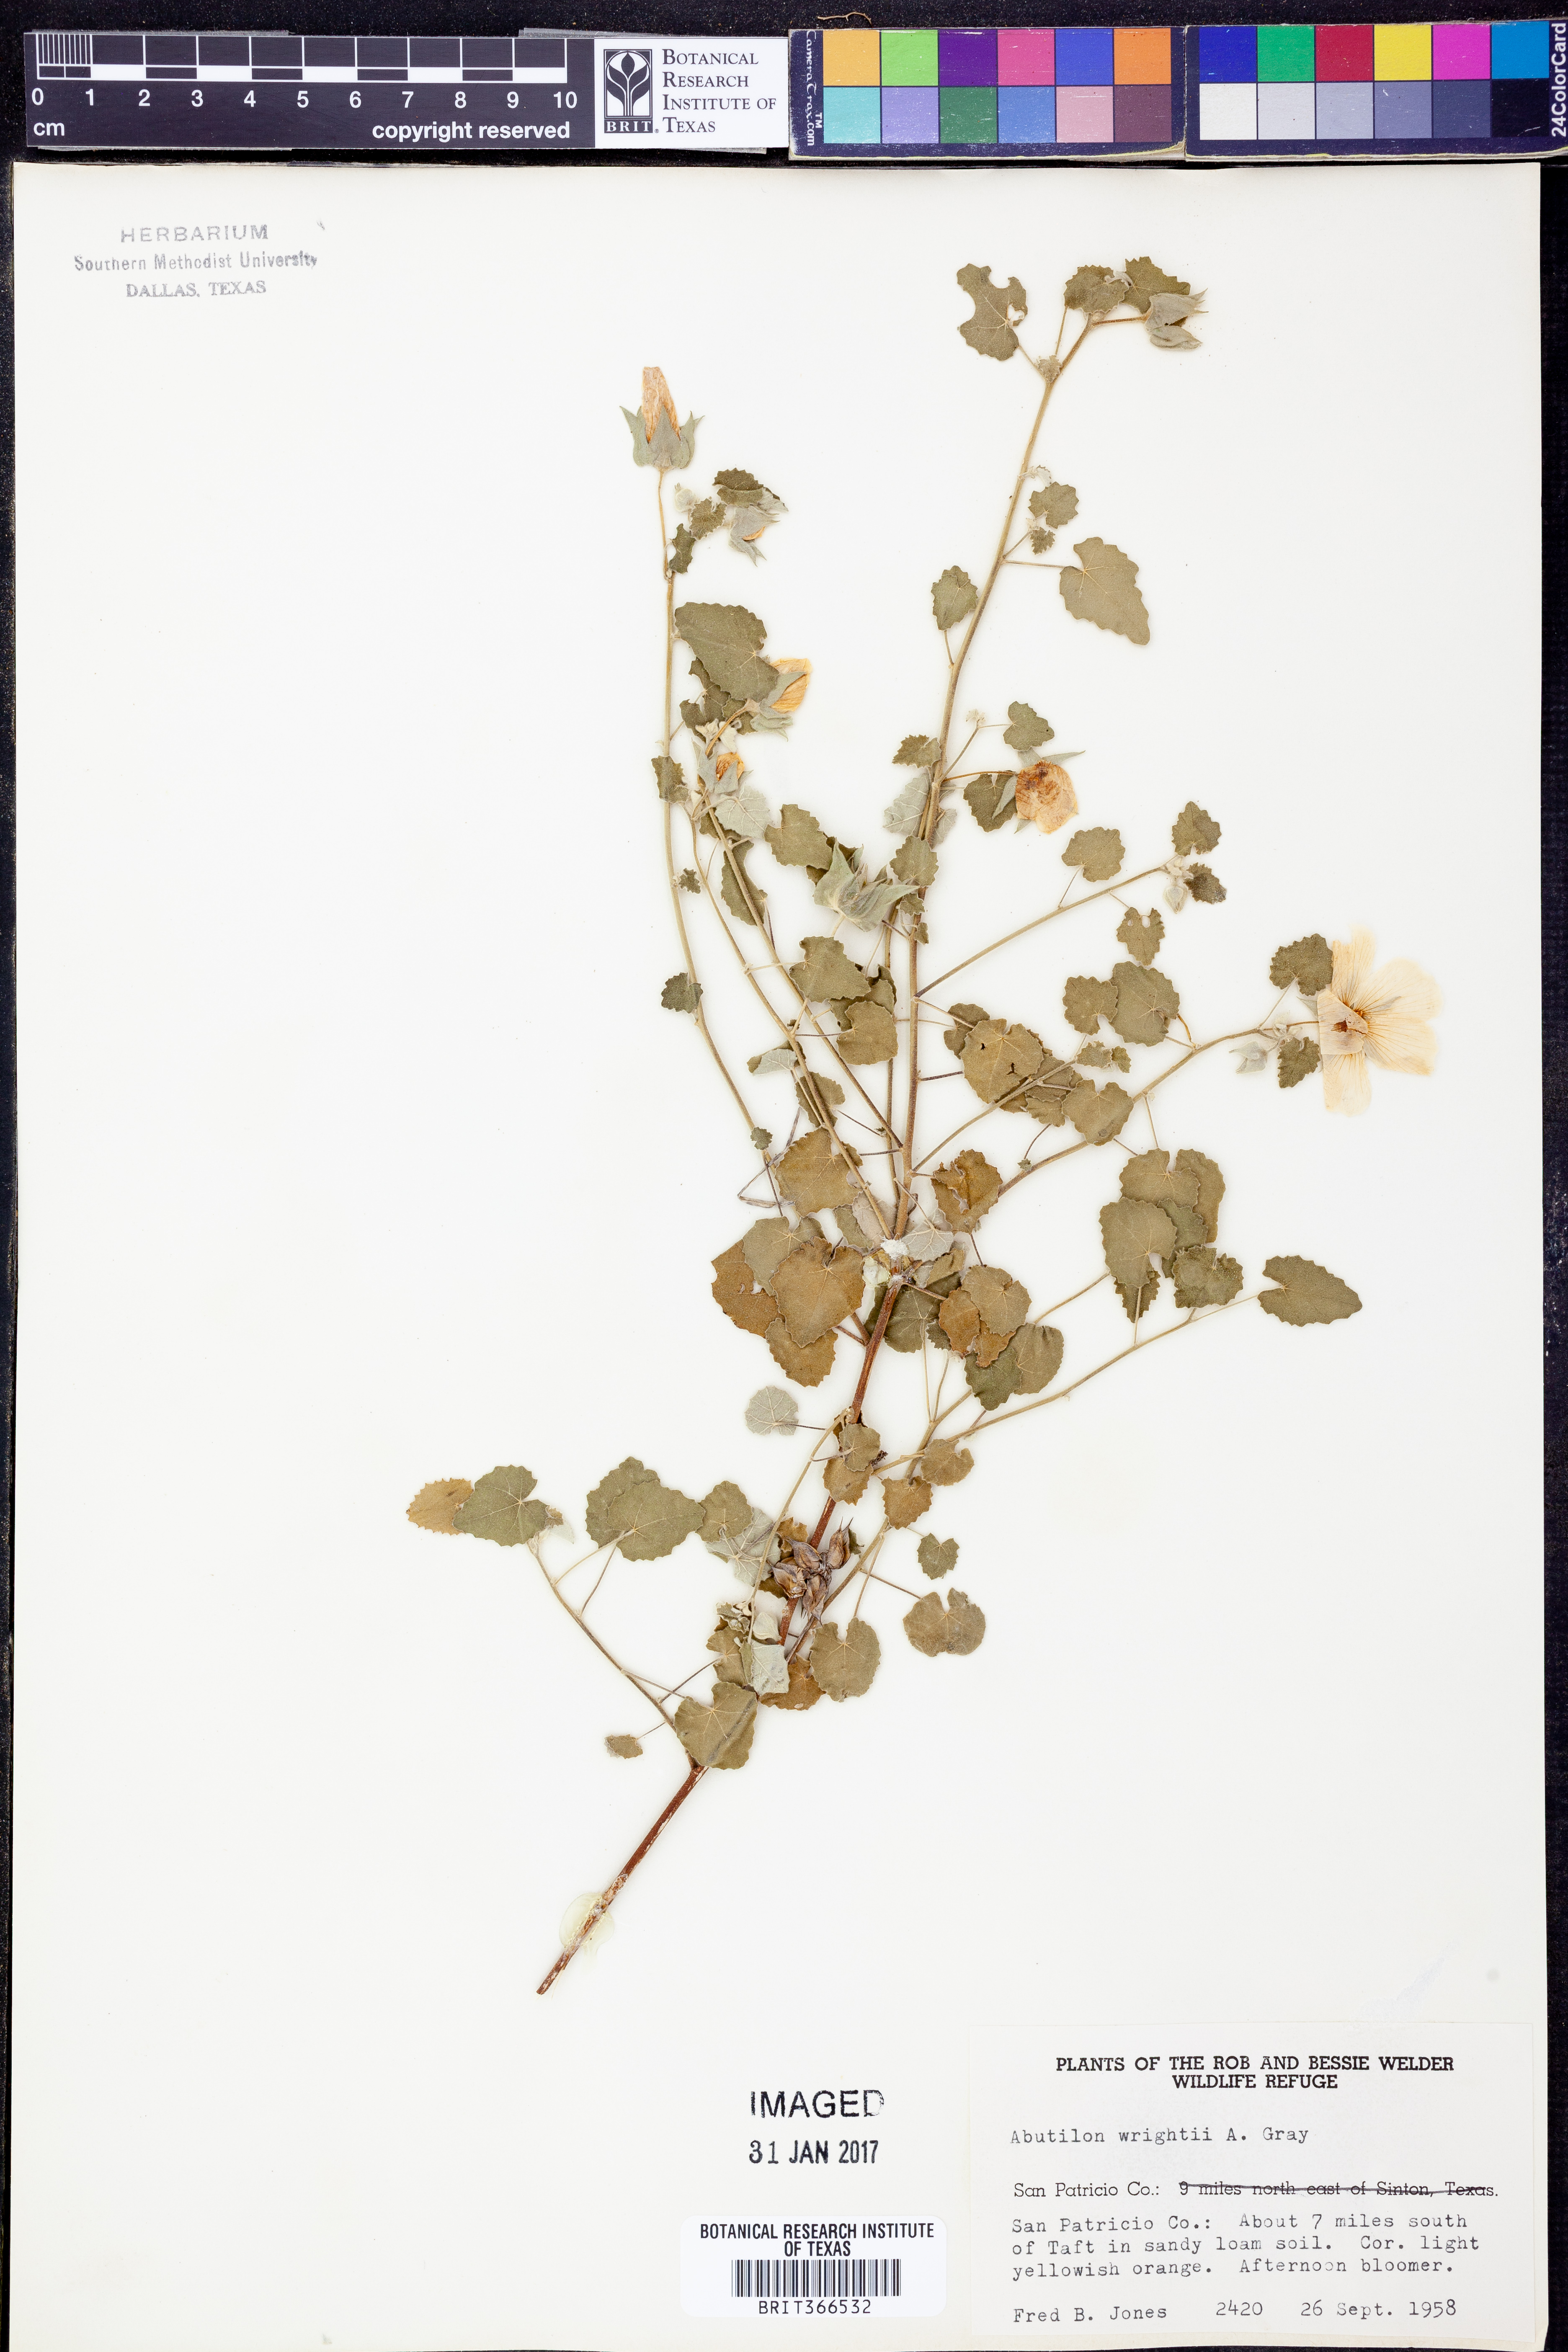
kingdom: Plantae
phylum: Tracheophyta
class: Magnoliopsida
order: Malvales
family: Malvaceae
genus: Abutilon
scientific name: Abutilon wrightii
